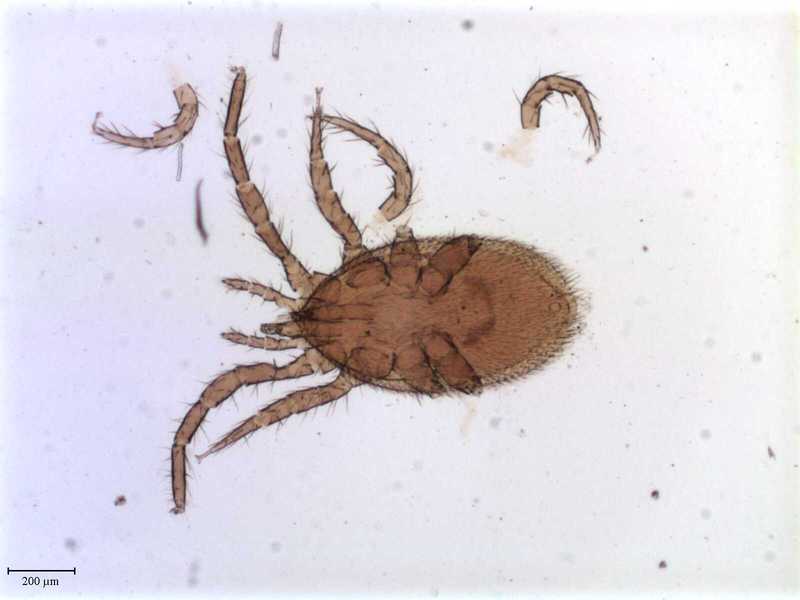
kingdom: Animalia
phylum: Arthropoda
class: Arachnida
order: Mesostigmata
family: Parasitidae
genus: Haemogamasus
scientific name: Haemogamasus mandshuricus
